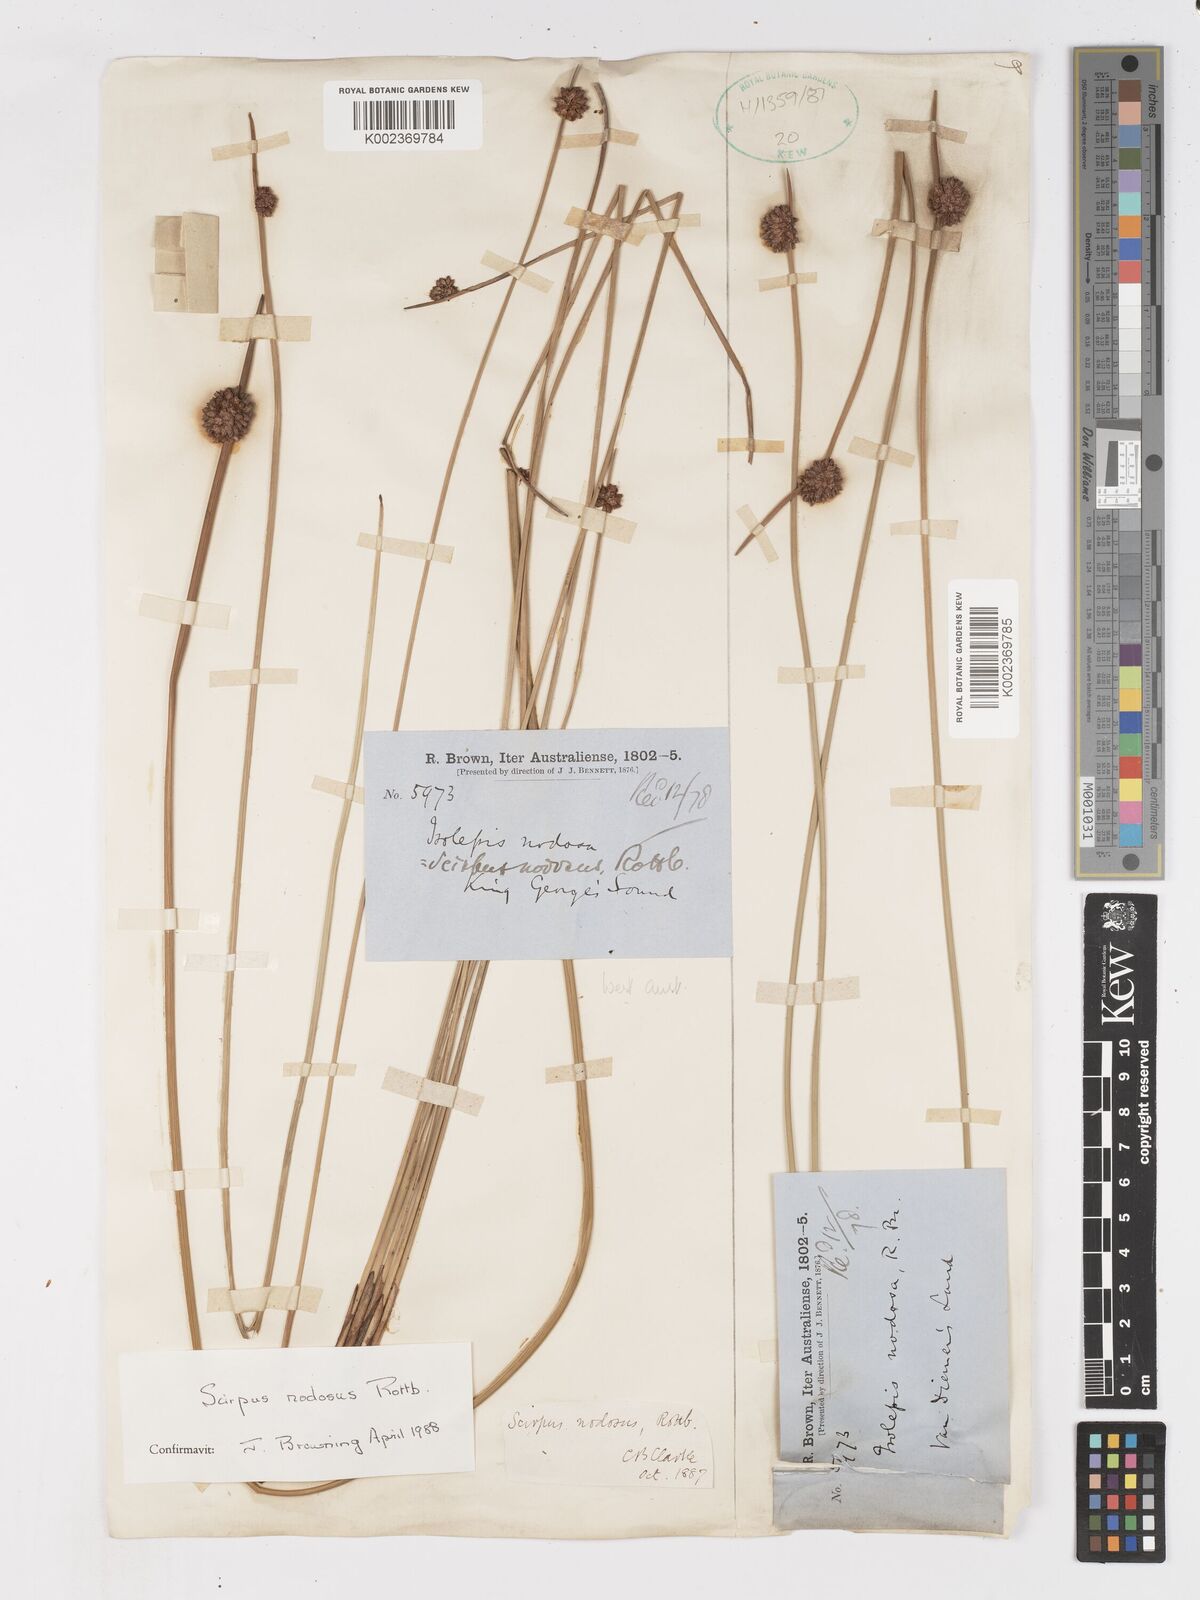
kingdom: Plantae
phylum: Tracheophyta
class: Liliopsida
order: Poales
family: Cyperaceae
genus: Ficinia
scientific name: Ficinia nodosa
